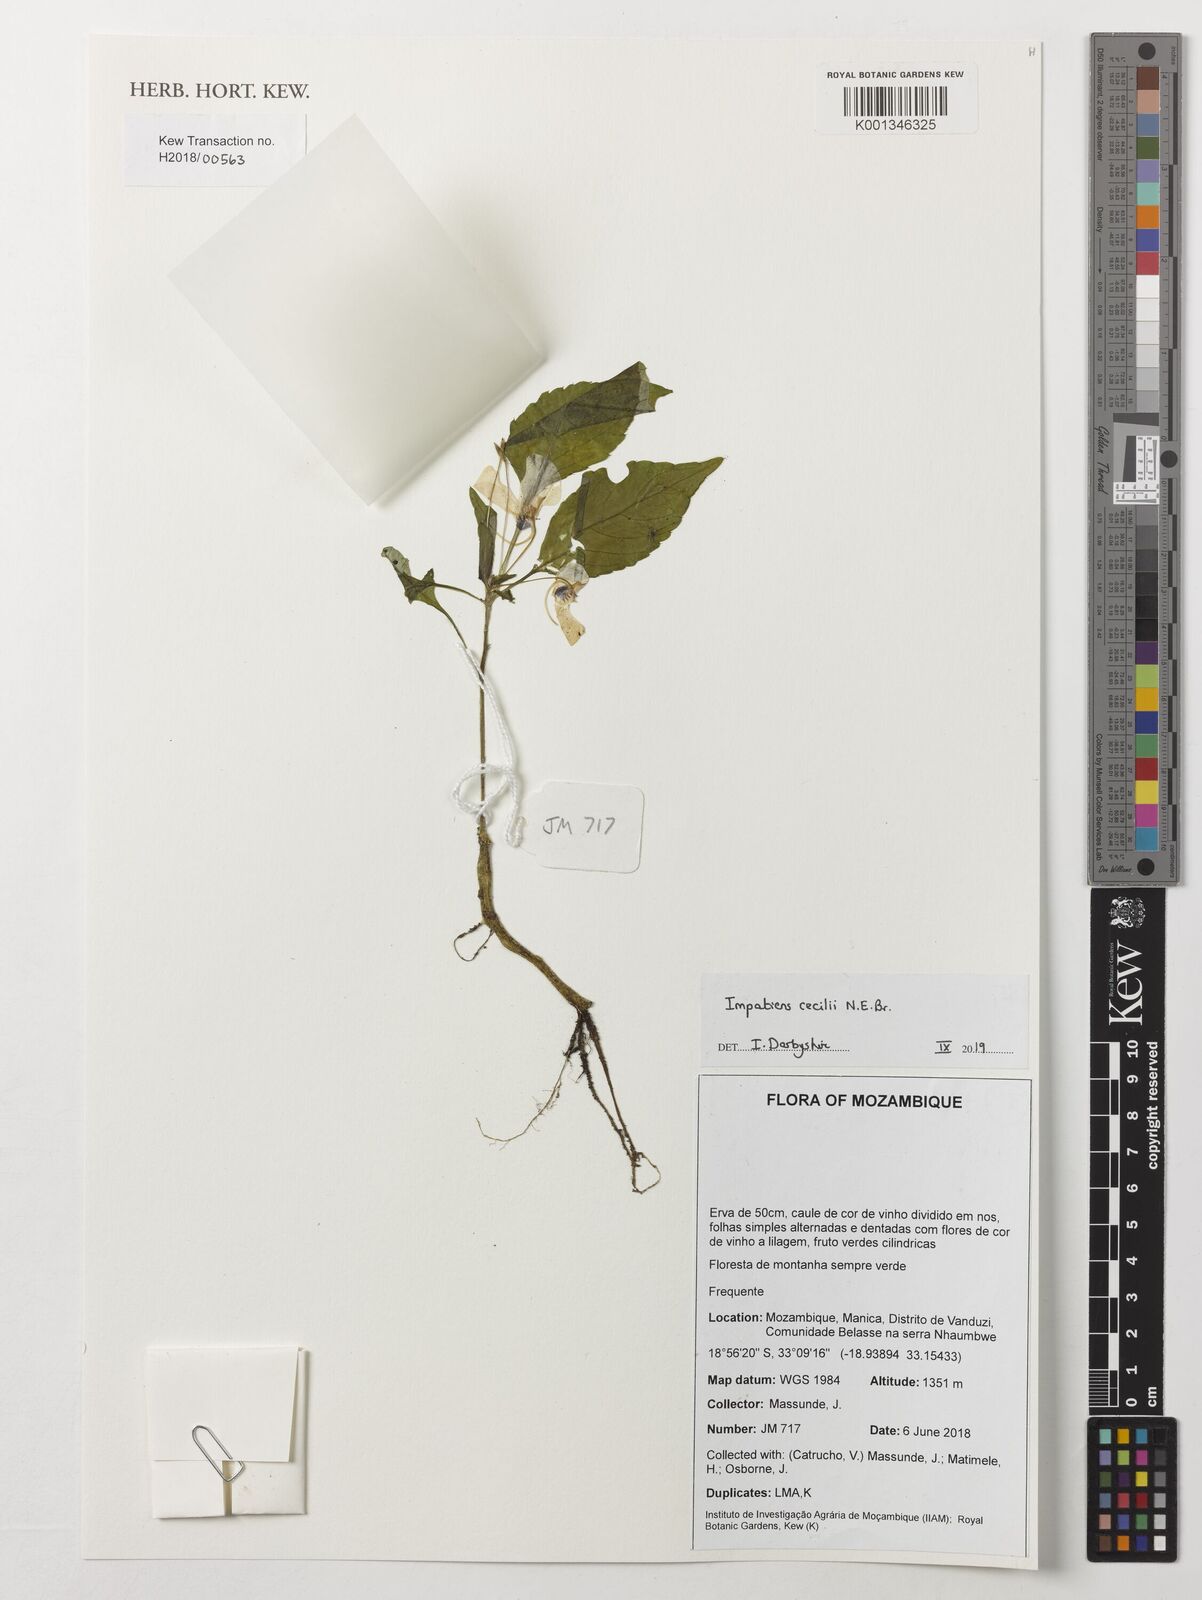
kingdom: Plantae
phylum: Tracheophyta
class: Magnoliopsida
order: Ericales
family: Balsaminaceae
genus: Impatiens
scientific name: Impatiens cecilii
